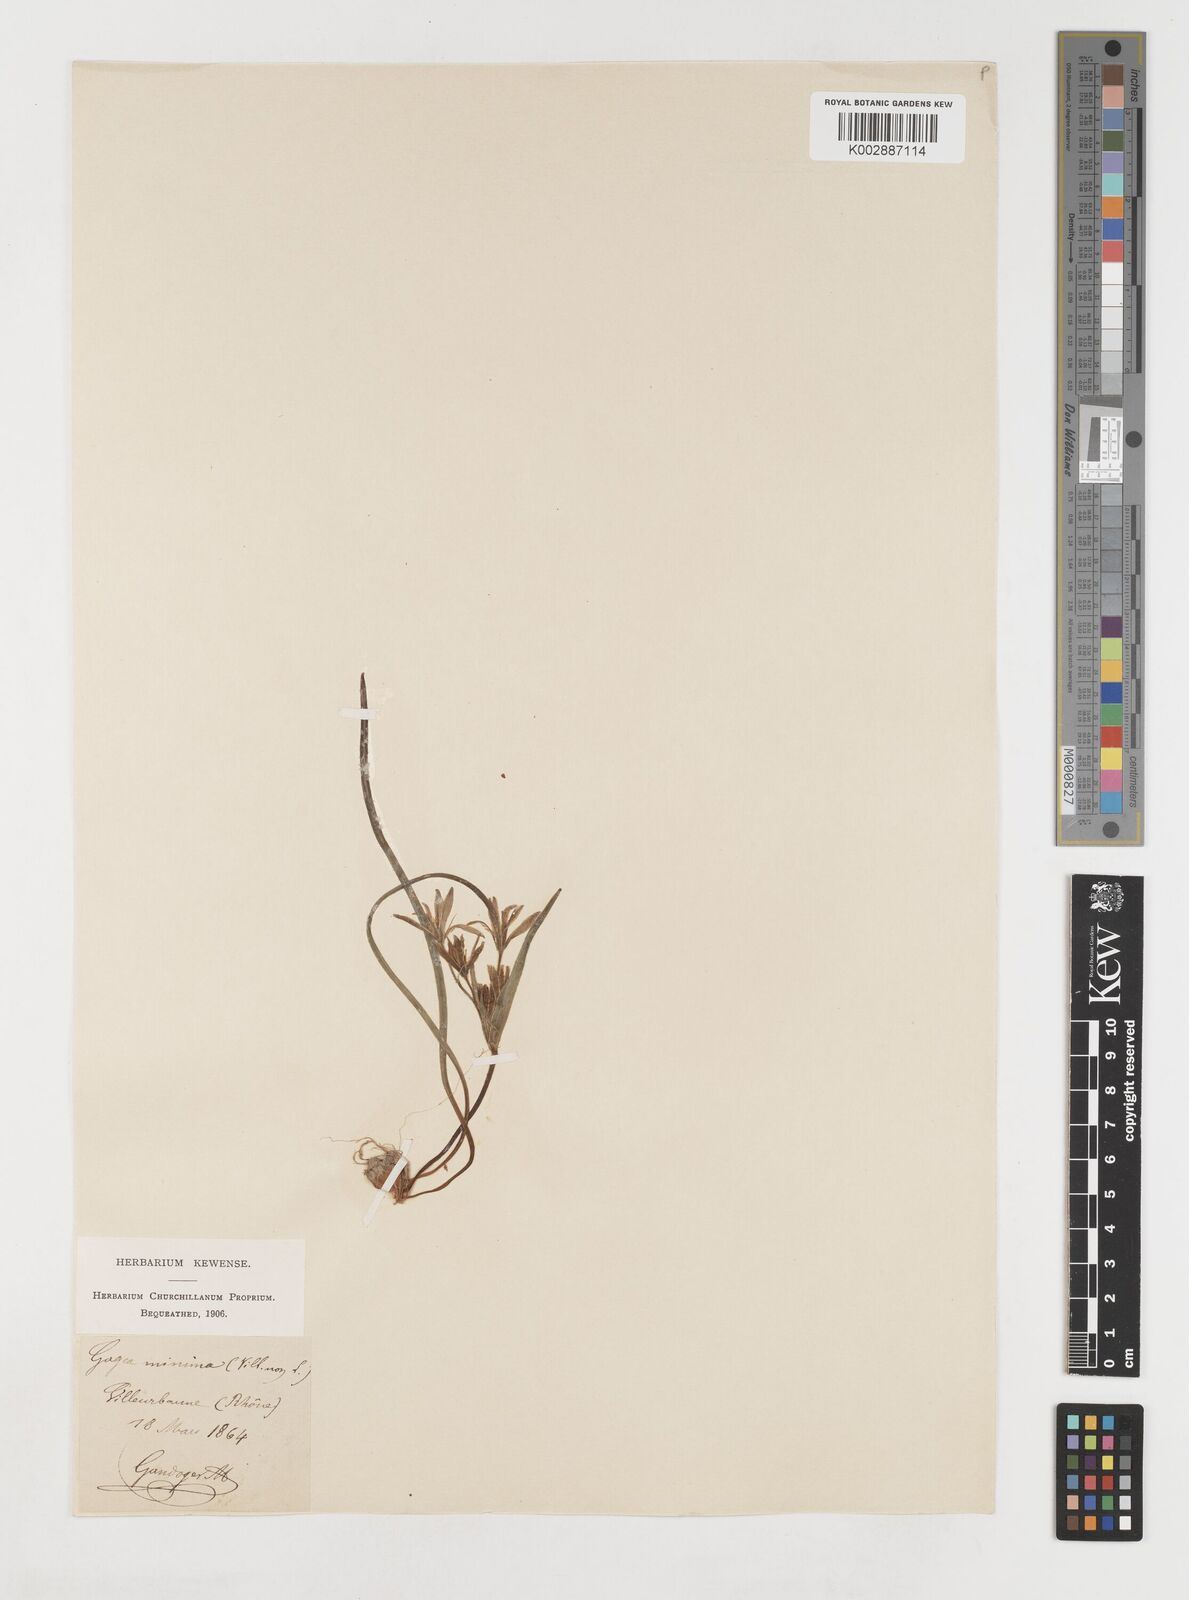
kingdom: Plantae
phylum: Tracheophyta
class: Liliopsida
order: Liliales
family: Liliaceae
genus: Gagea
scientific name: Gagea villosa
